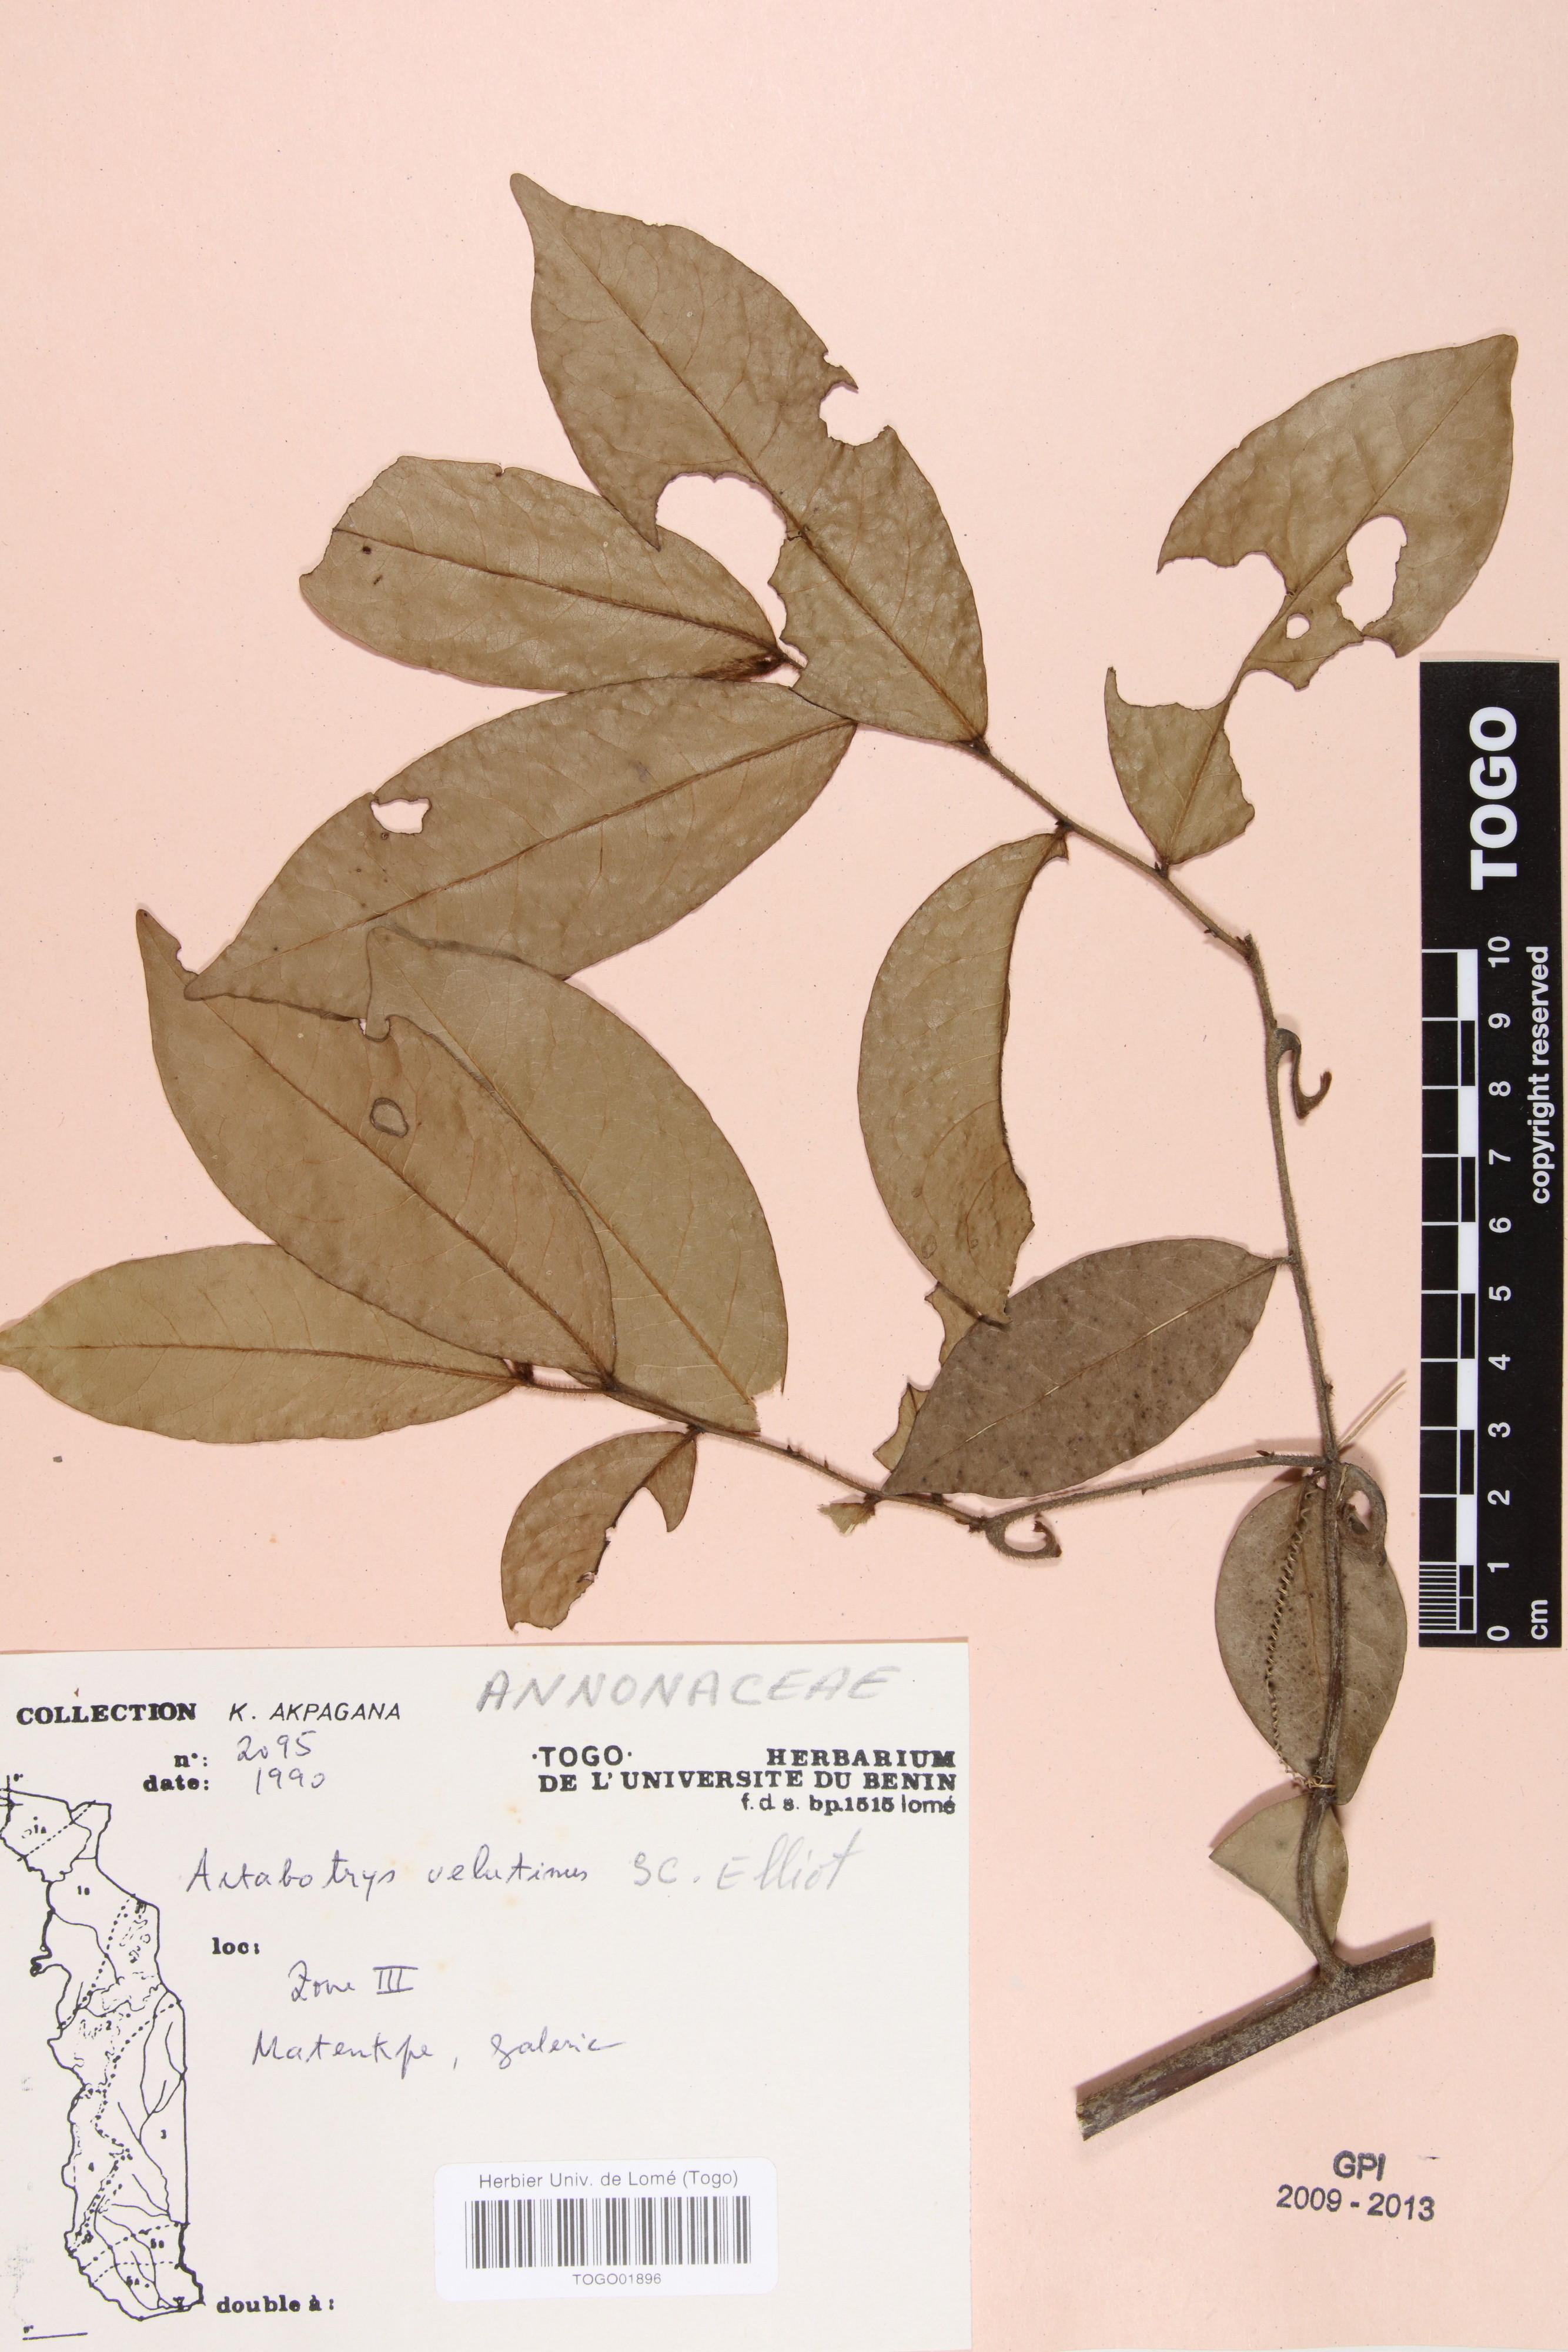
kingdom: Plantae
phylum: Tracheophyta
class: Magnoliopsida
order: Magnoliales
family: Annonaceae
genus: Artabotrys
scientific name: Artabotrys velutinus
